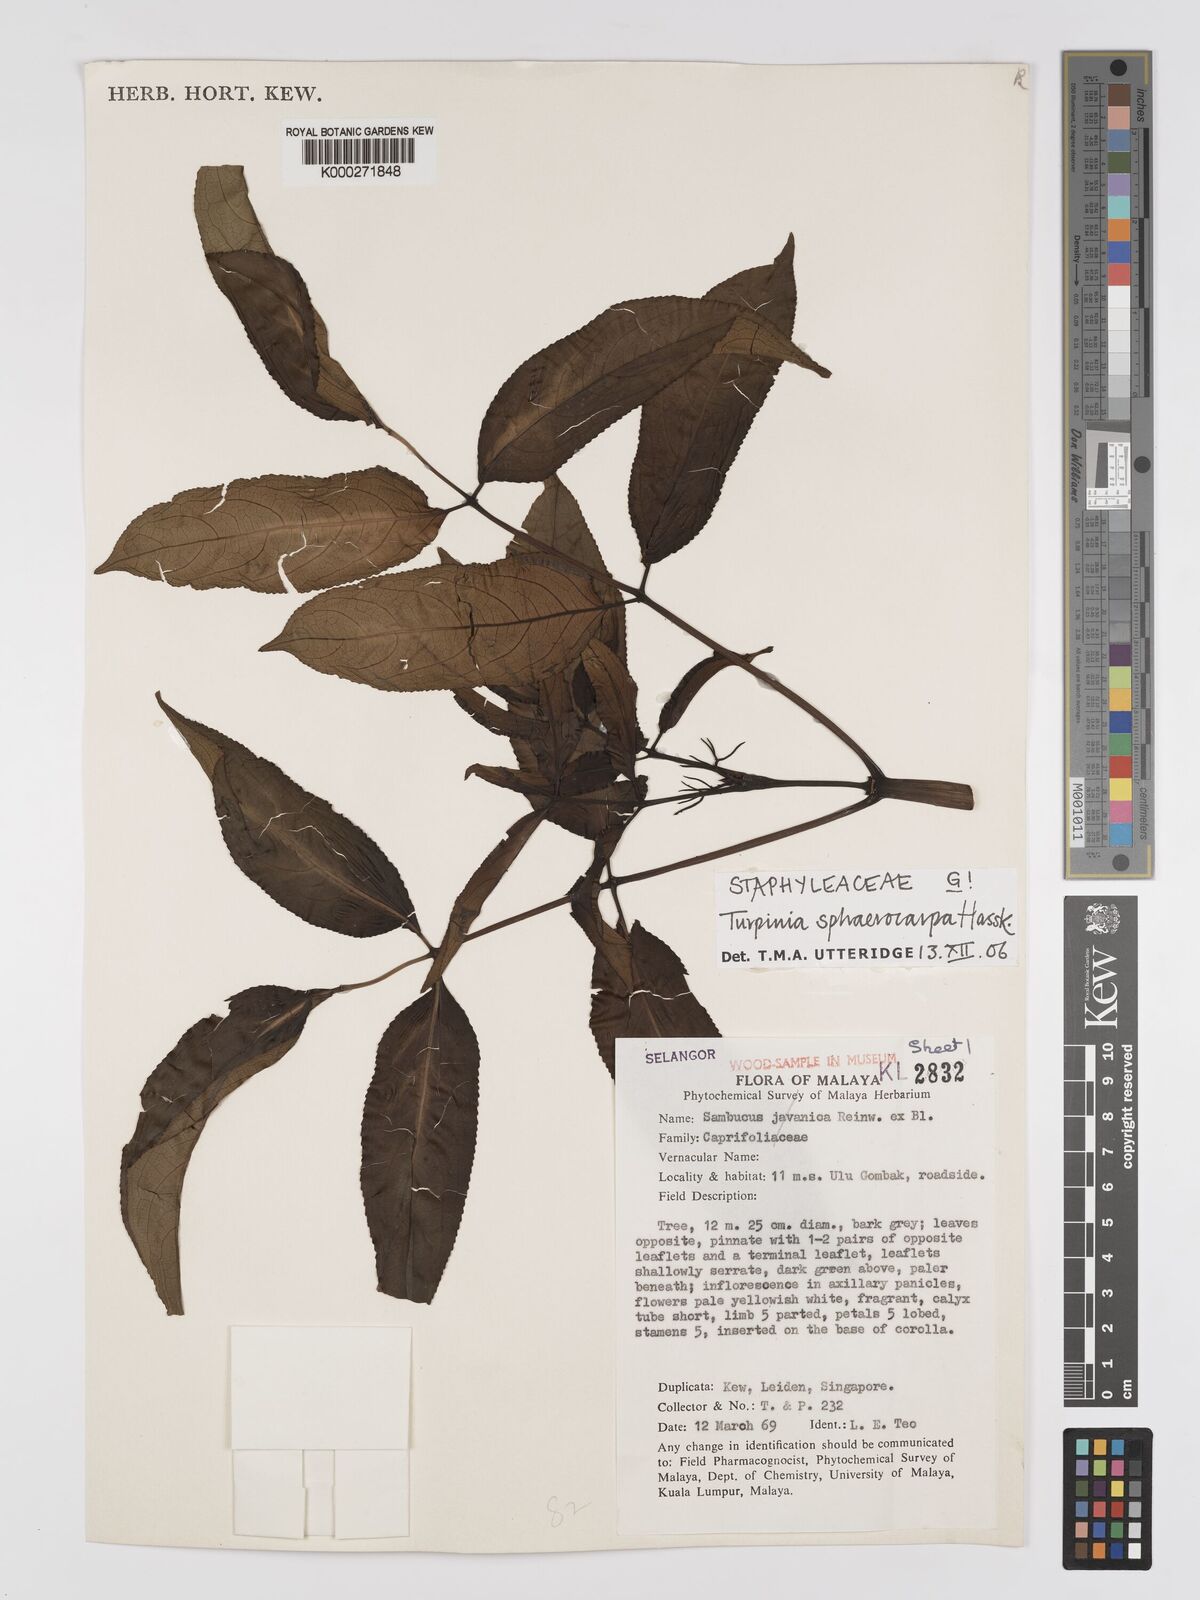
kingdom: Plantae
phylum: Tracheophyta
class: Magnoliopsida
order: Crossosomatales
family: Staphyleaceae
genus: Dalrympelea
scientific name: Dalrympelea sphaerocarpa
